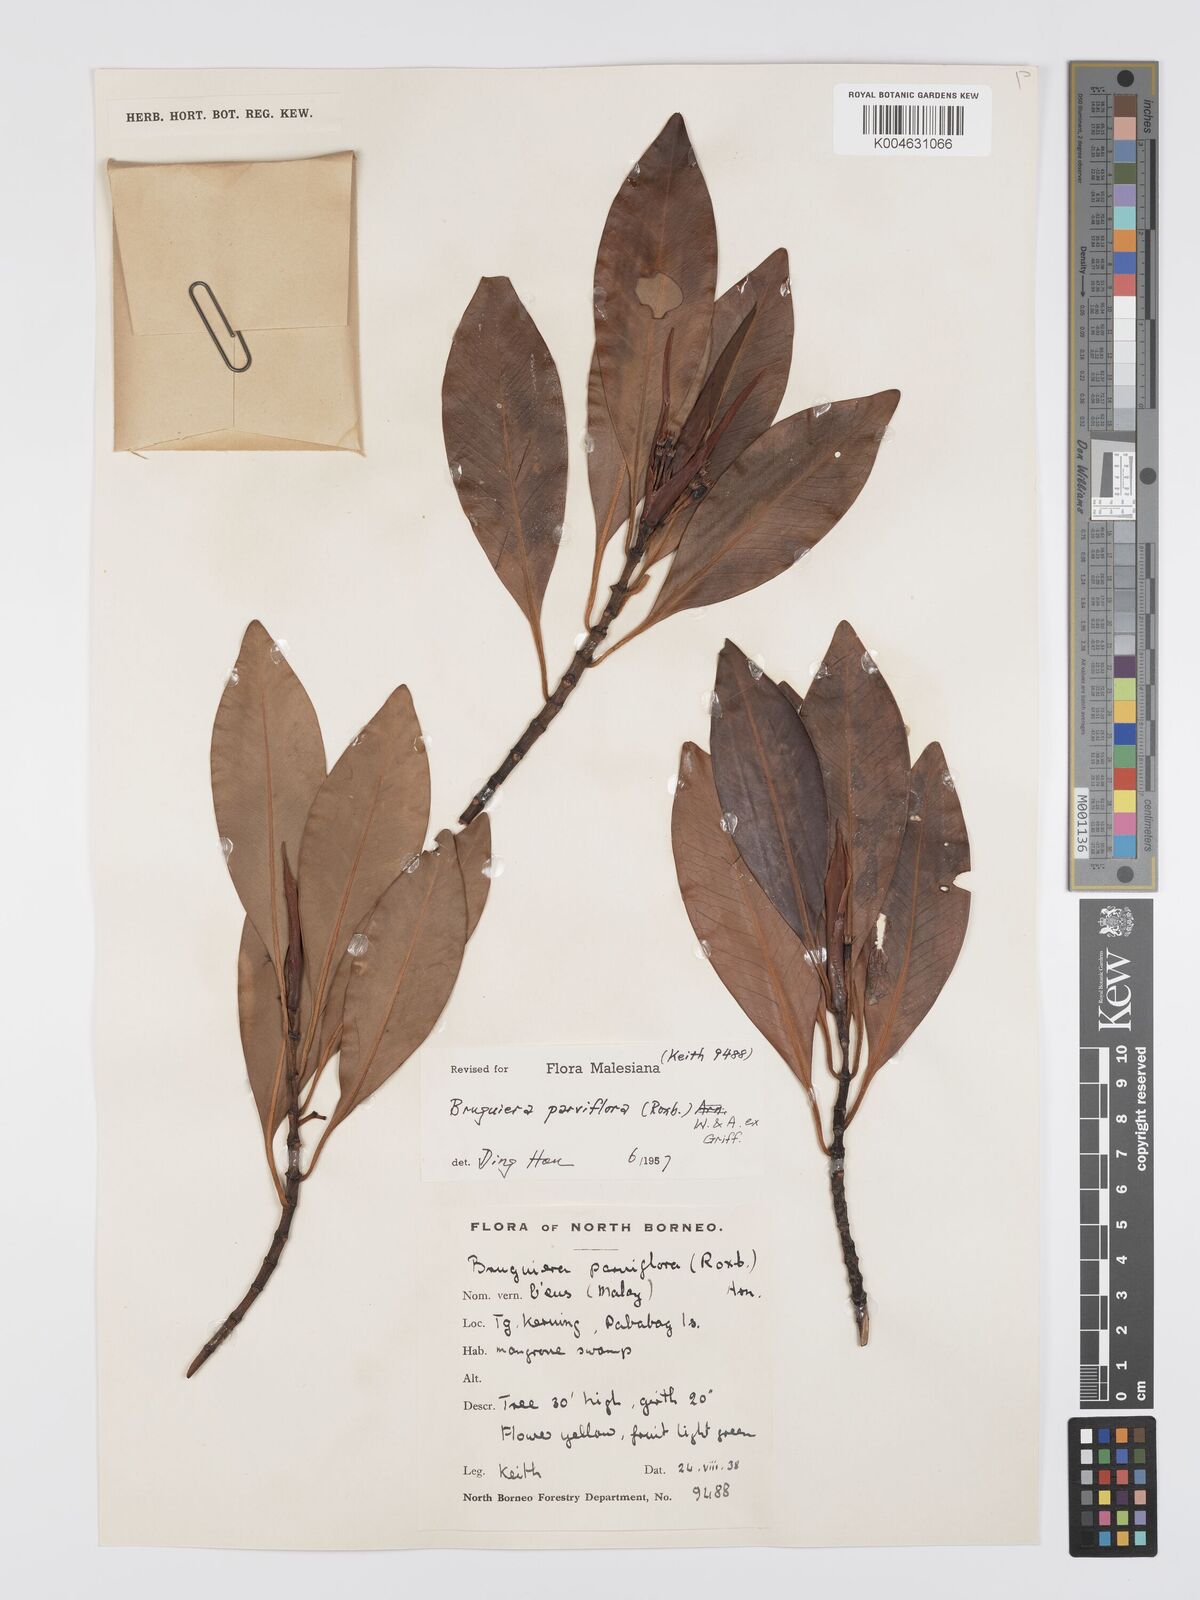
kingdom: Plantae
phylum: Tracheophyta
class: Magnoliopsida
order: Malpighiales
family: Rhizophoraceae
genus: Bruguiera
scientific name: Bruguiera parviflora
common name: Smallflower bruguiera
